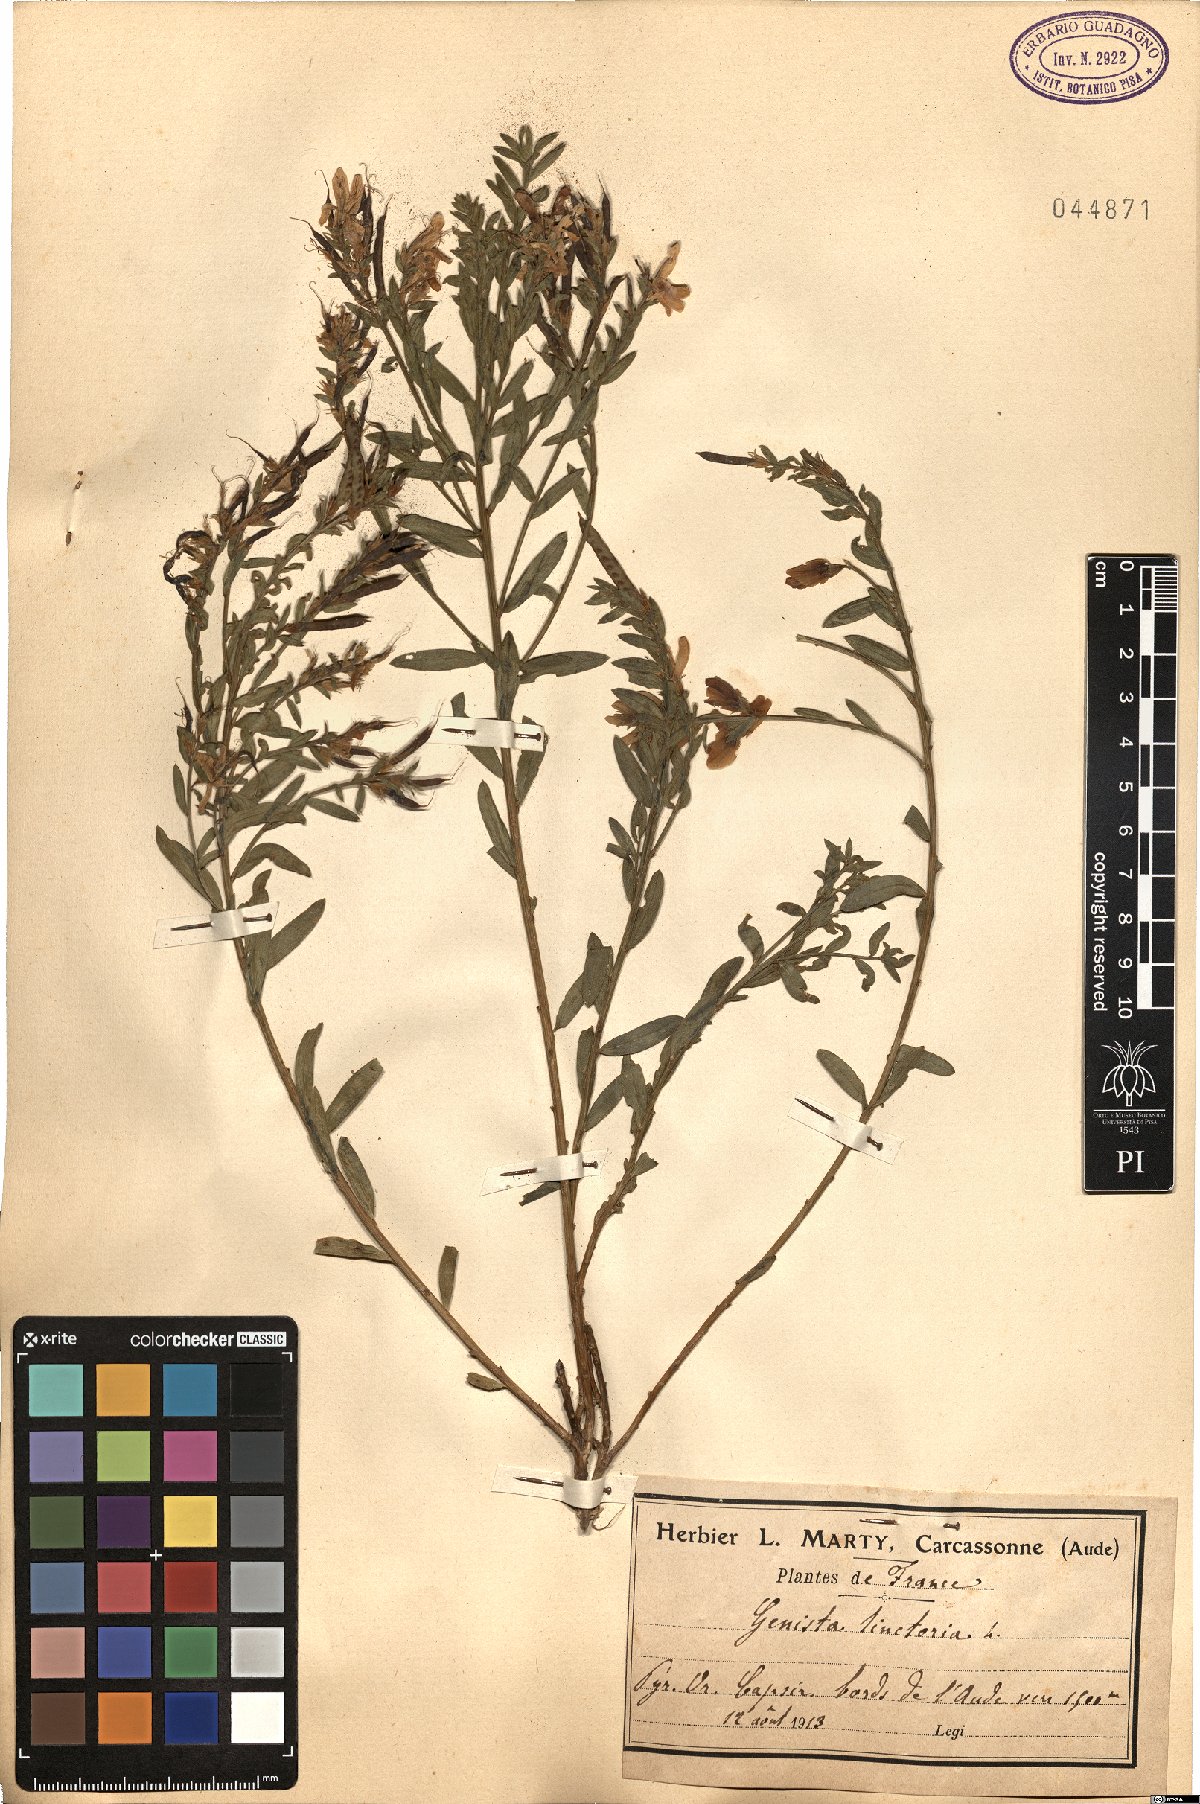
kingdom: Plantae
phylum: Tracheophyta
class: Magnoliopsida
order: Fabales
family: Fabaceae
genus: Genista
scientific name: Genista tinctoria
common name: Dyer's greenweed
